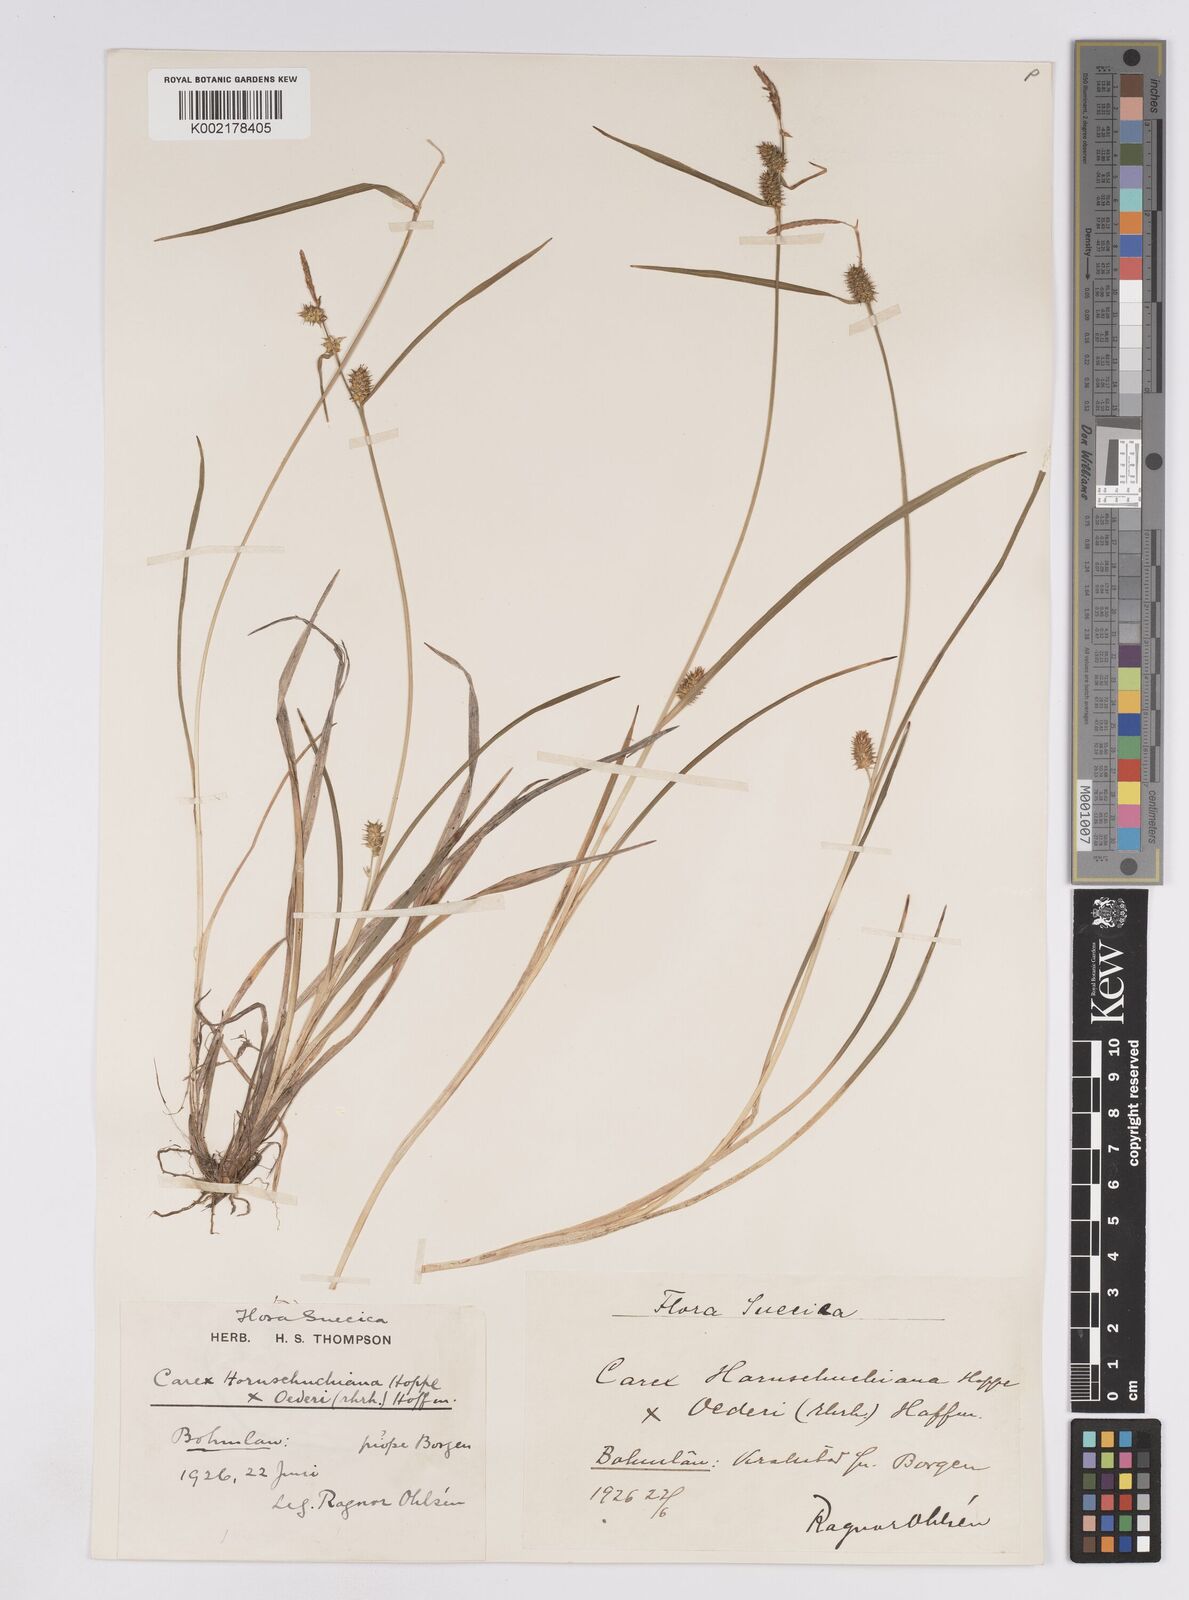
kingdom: Plantae
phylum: Tracheophyta
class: Liliopsida
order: Poales
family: Cyperaceae
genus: Carex
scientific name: Carex demissa
